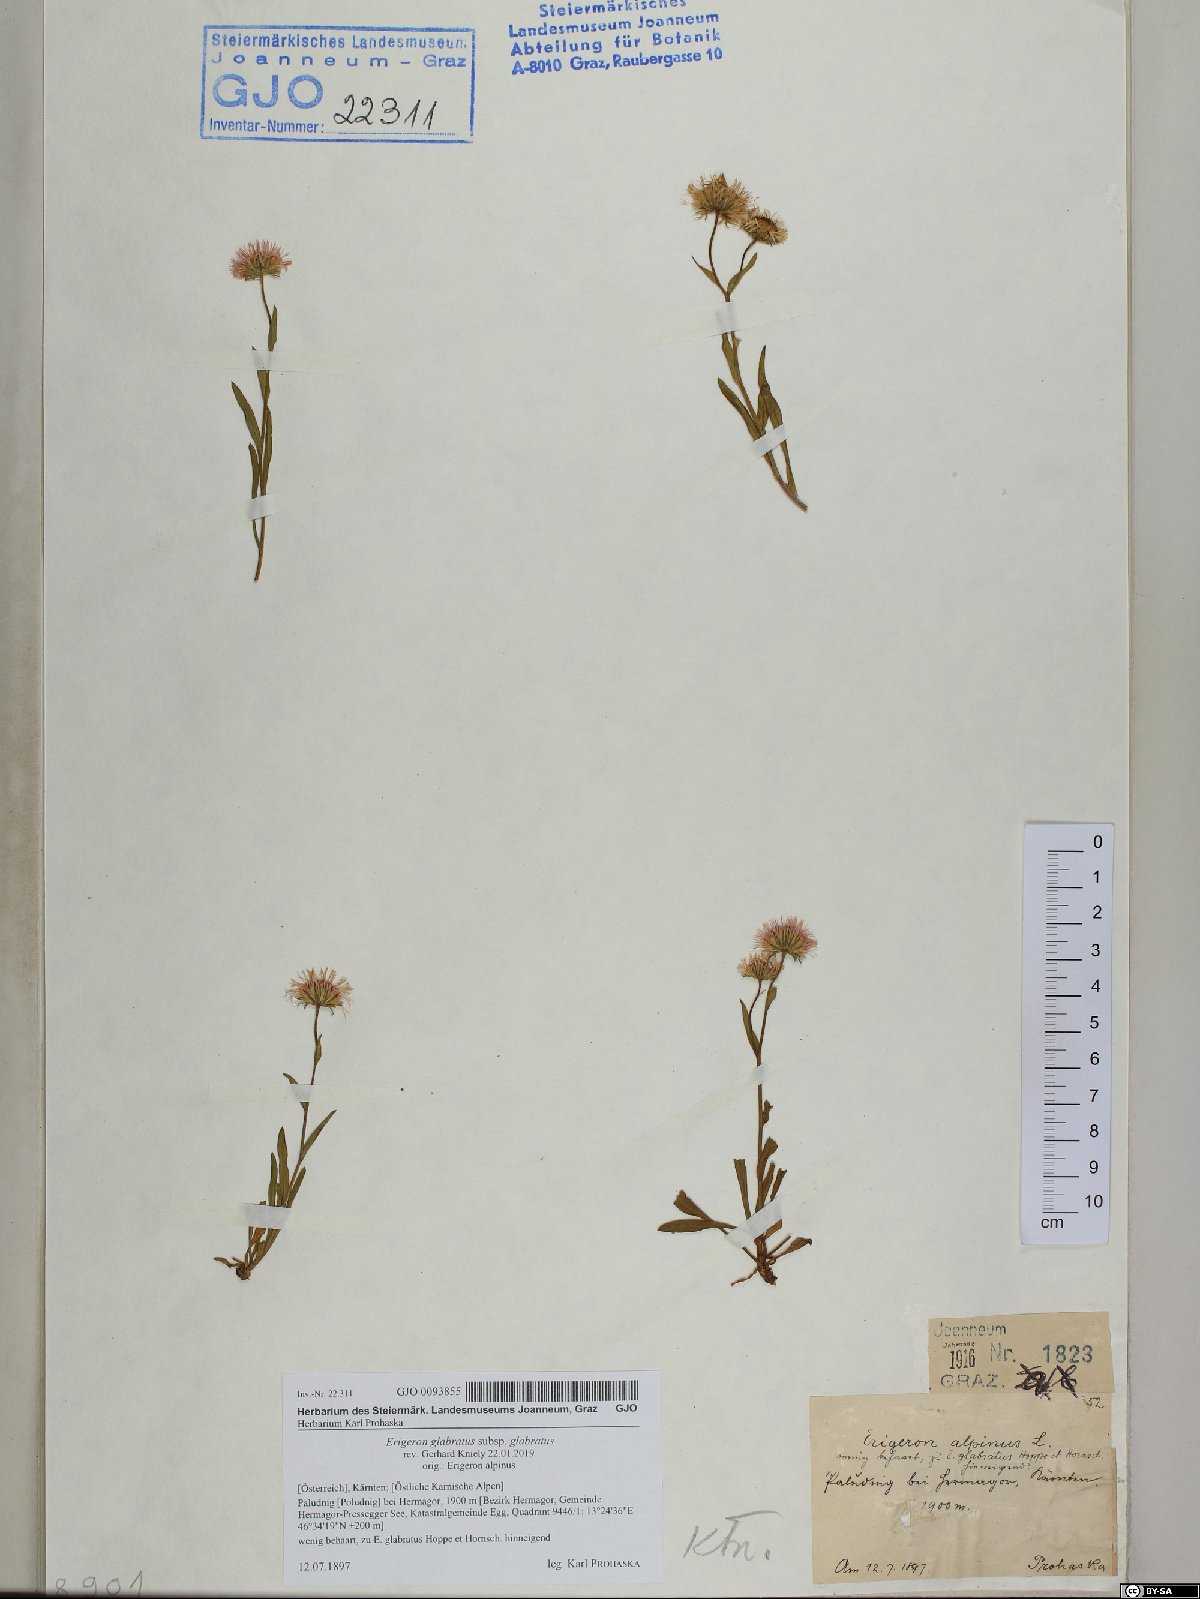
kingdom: Plantae
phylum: Tracheophyta
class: Magnoliopsida
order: Asterales
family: Asteraceae
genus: Erigeron
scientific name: Erigeron glabratus
